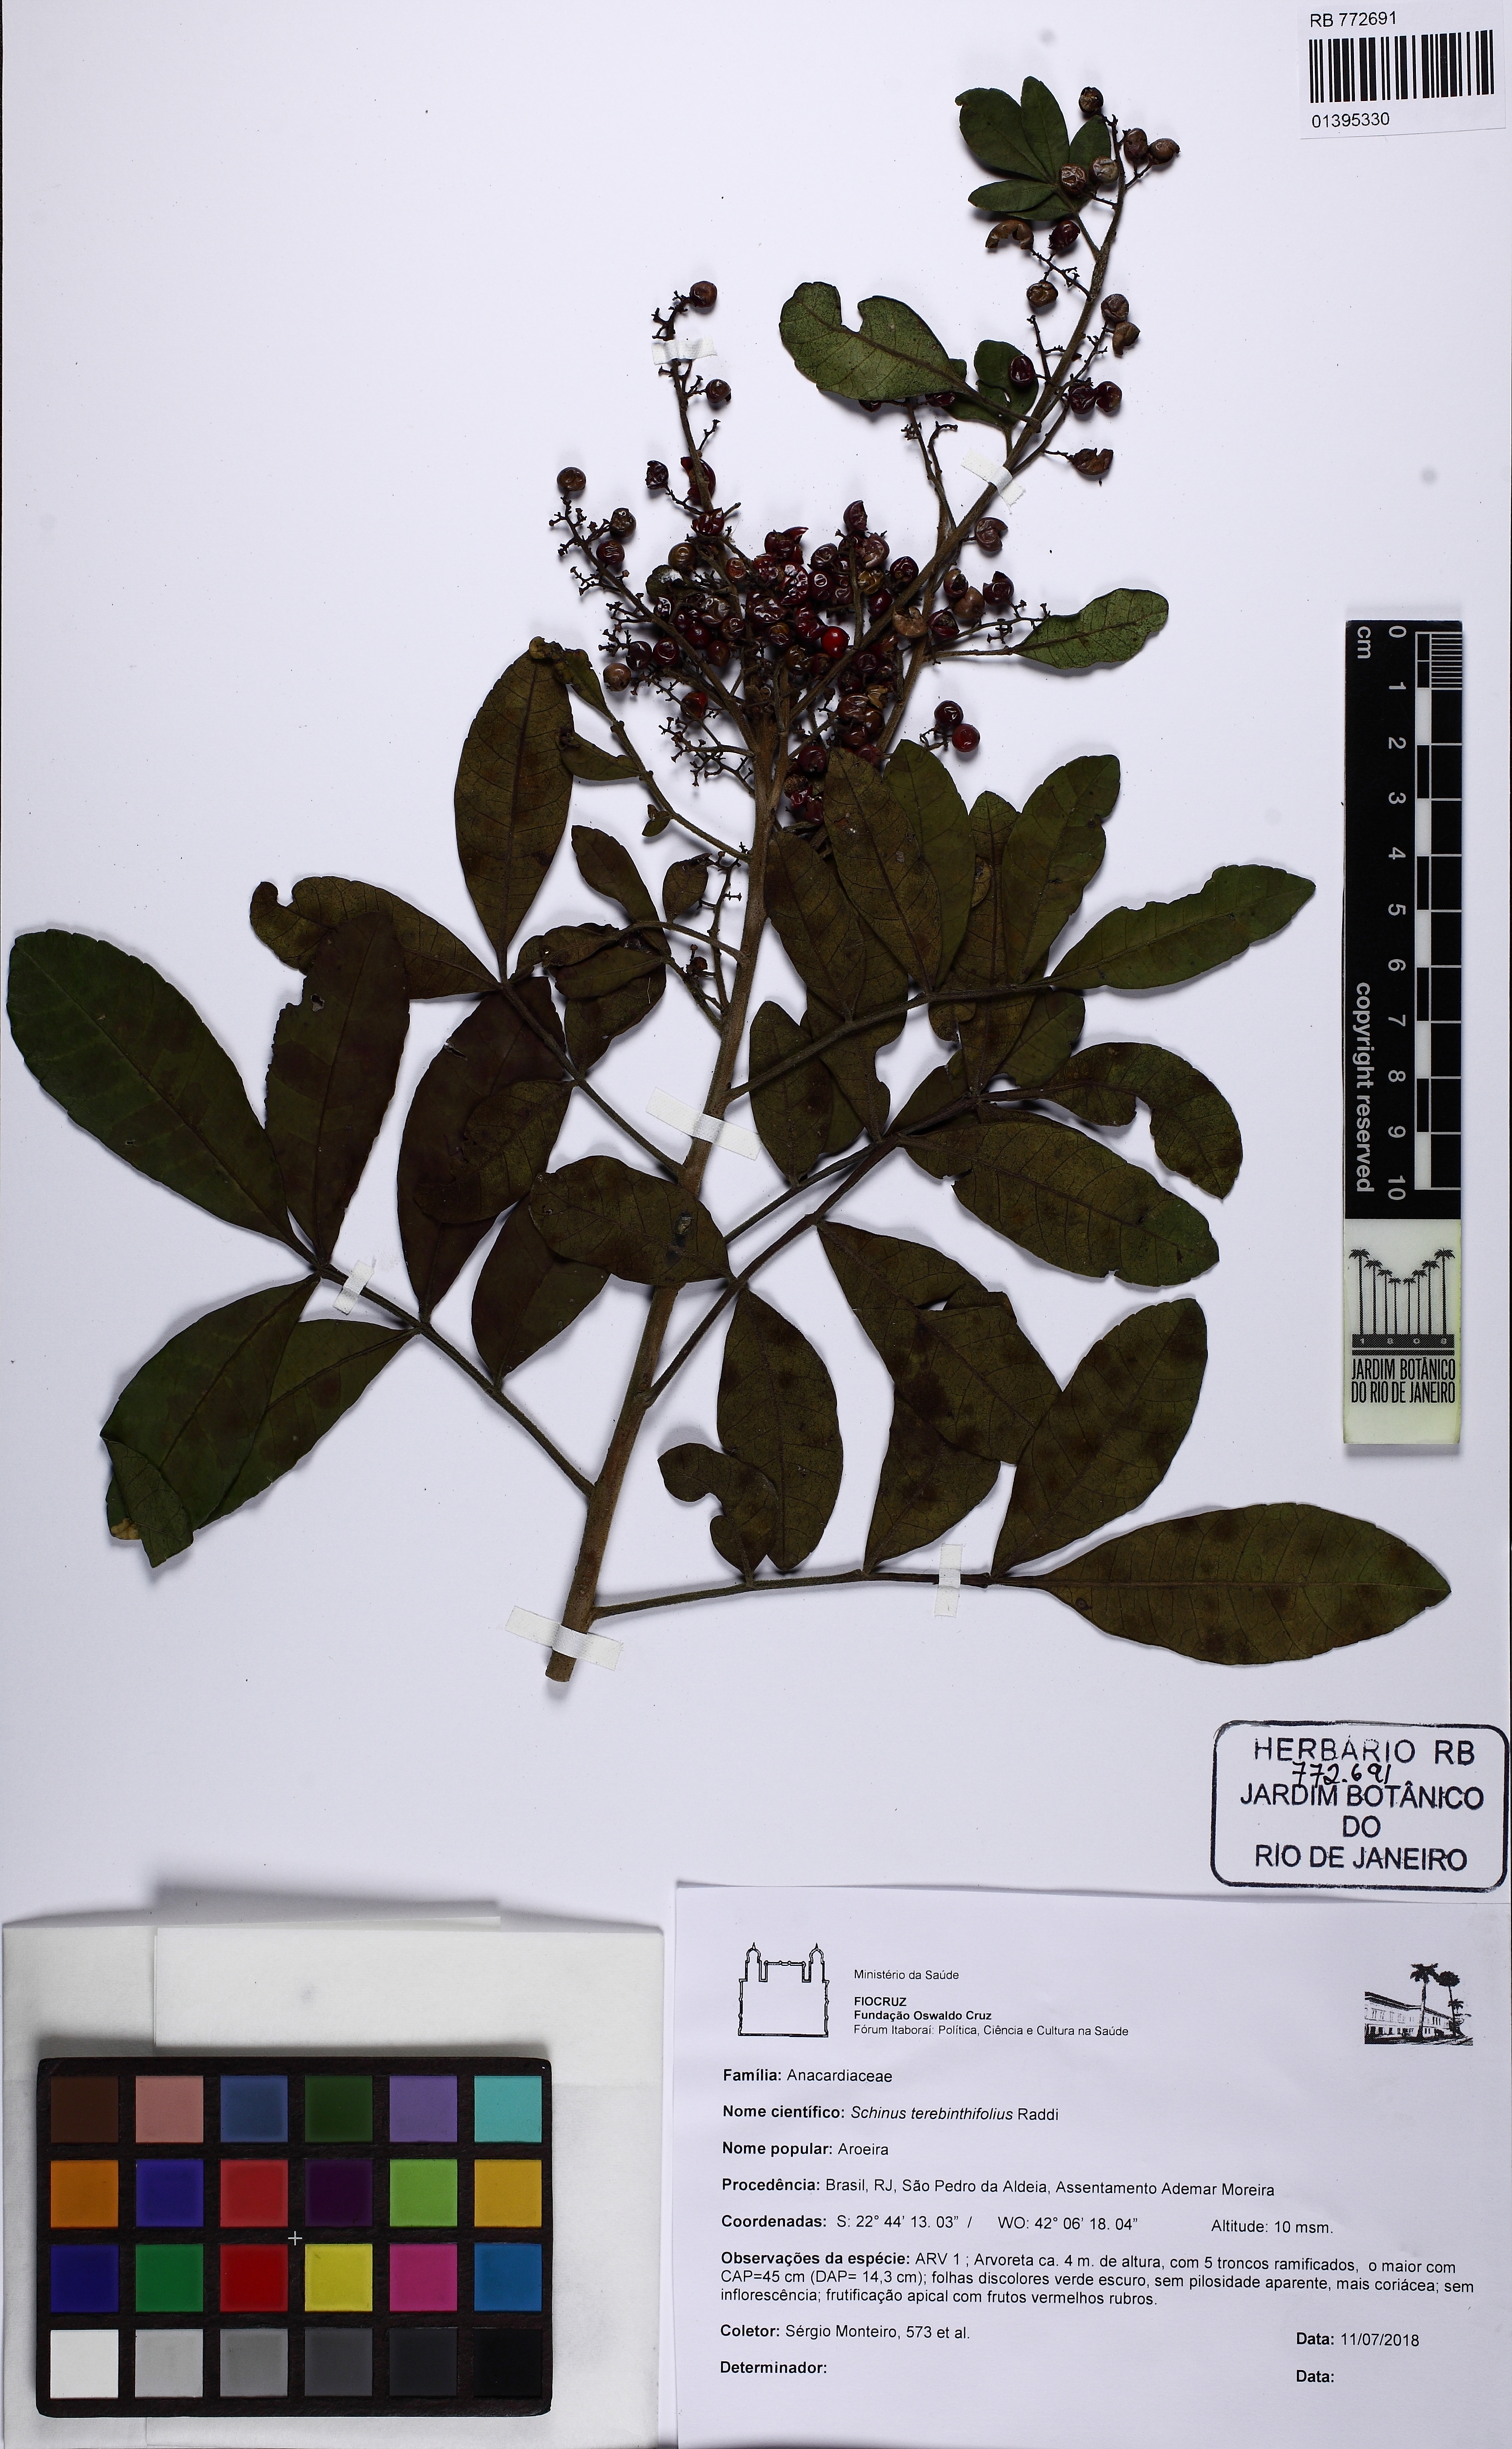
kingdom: Plantae
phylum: Tracheophyta
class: Magnoliopsida
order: Sapindales
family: Anacardiaceae
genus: Schinus
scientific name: Schinus terebinthifolia
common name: Brazilian peppertree
